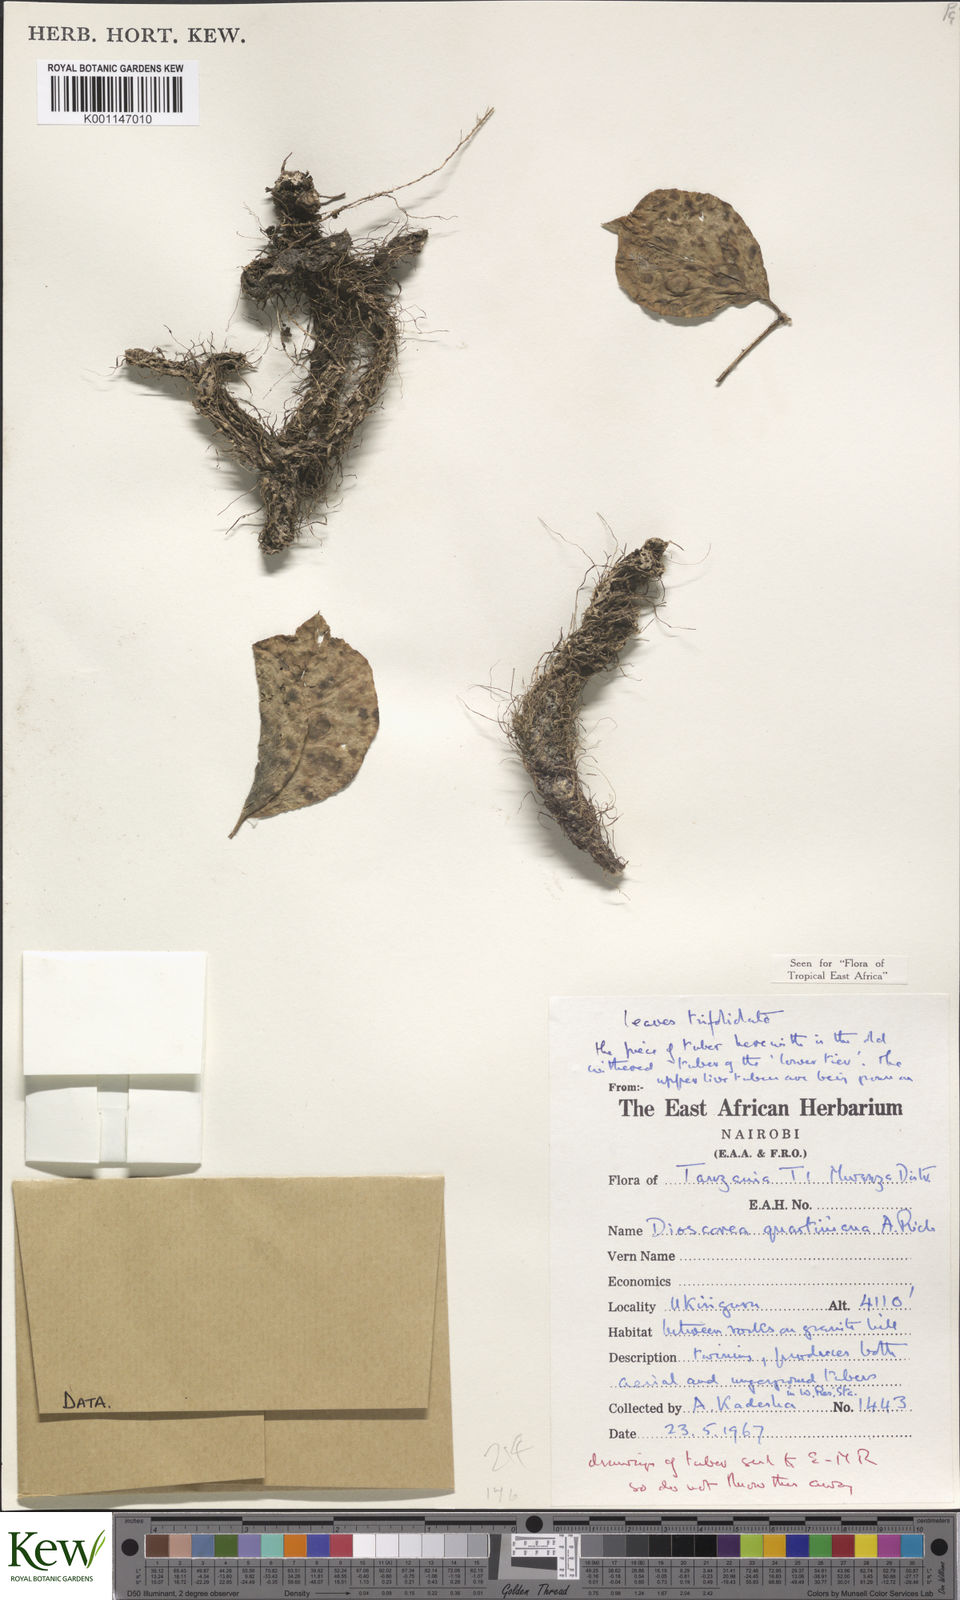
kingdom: Plantae
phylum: Tracheophyta
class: Liliopsida
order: Dioscoreales
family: Dioscoreaceae
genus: Dioscorea
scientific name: Dioscorea quartiniana
